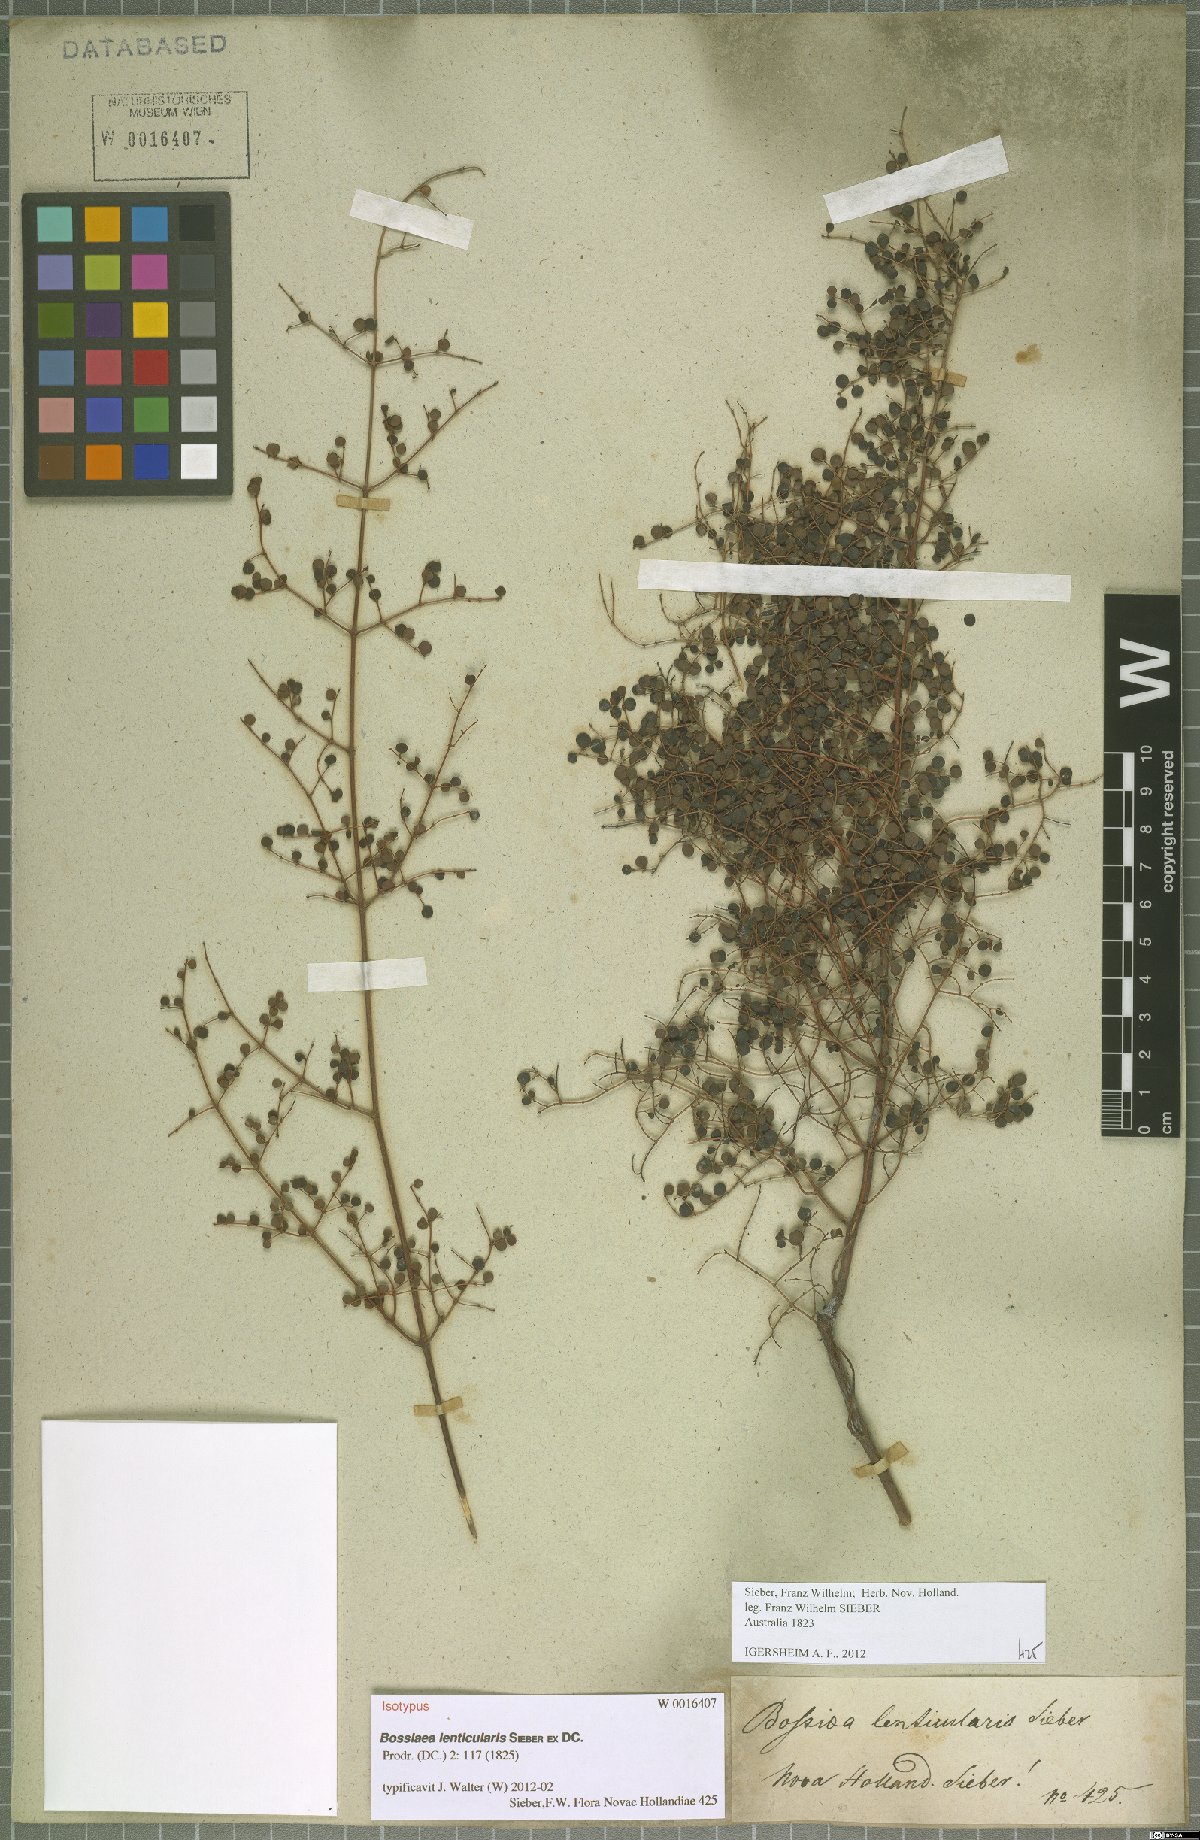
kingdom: Plantae
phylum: Tracheophyta
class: Magnoliopsida
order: Fabales
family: Fabaceae
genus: Bossiaea
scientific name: Bossiaea lenticularis
